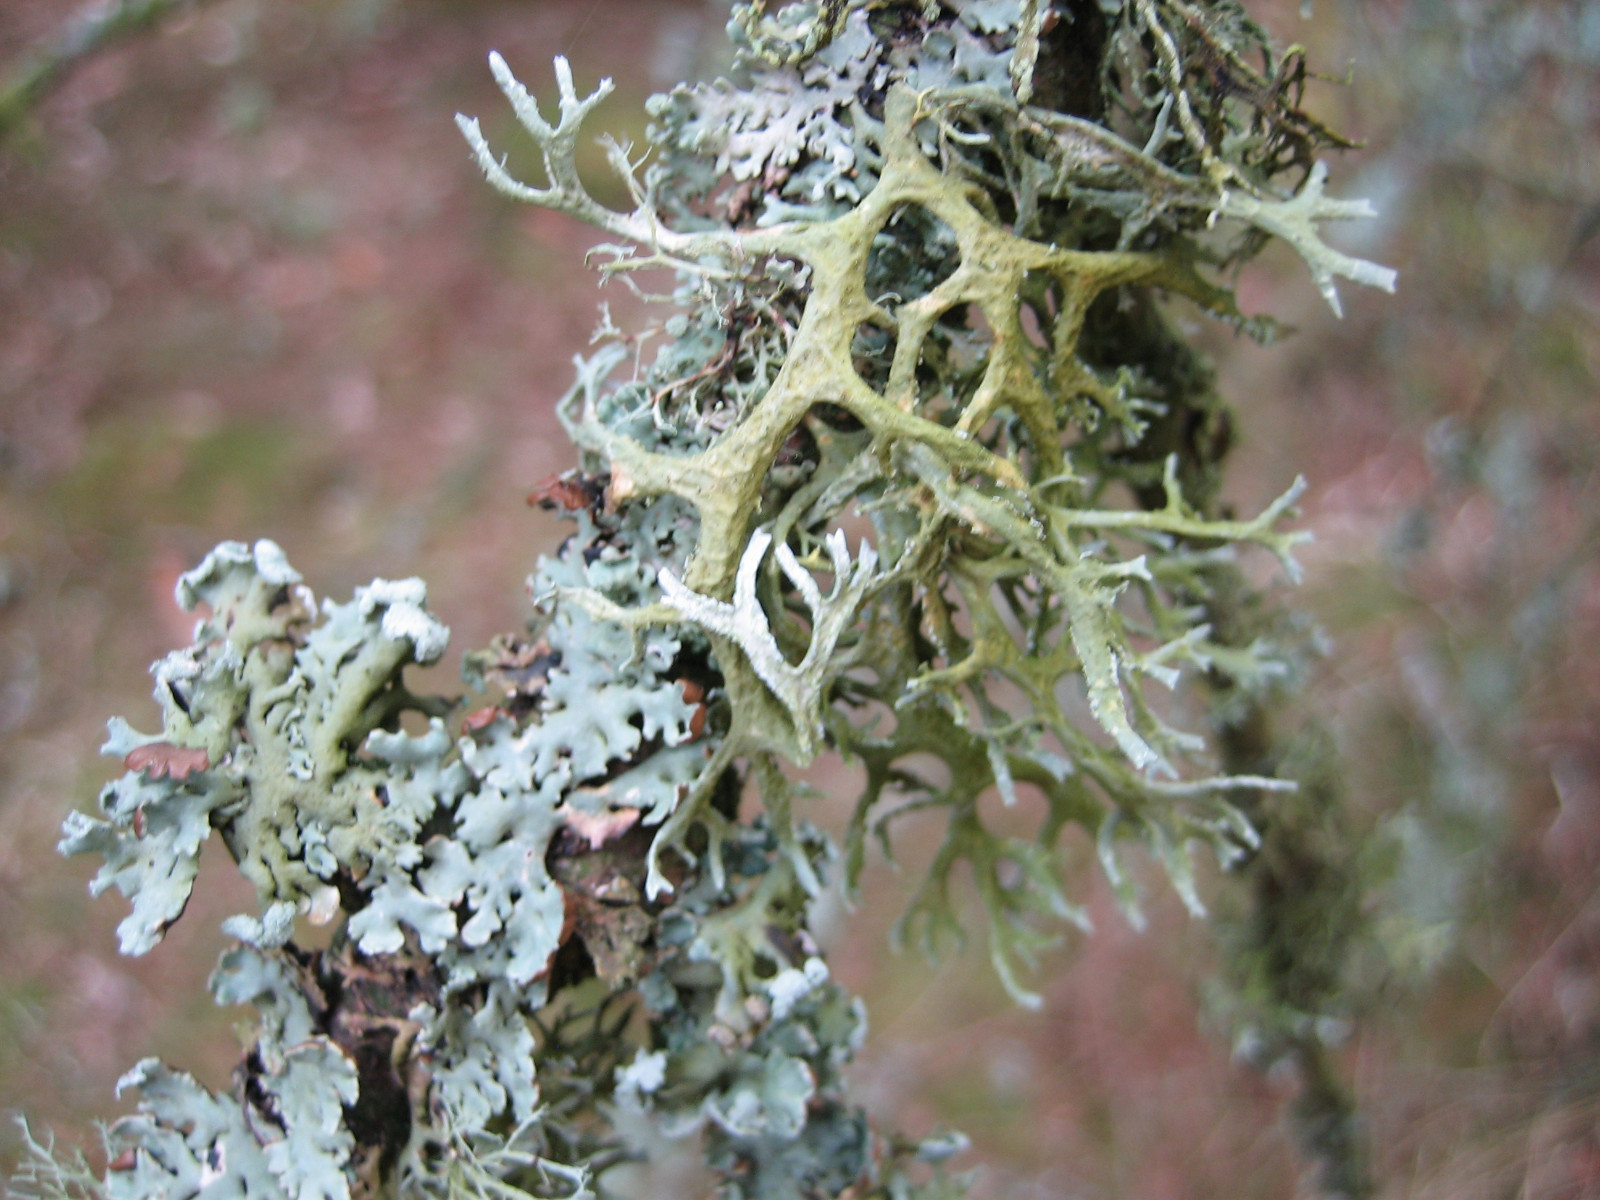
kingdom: Fungi
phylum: Ascomycota
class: Lecanoromycetes
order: Lecanorales
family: Parmeliaceae
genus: Evernia
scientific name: Evernia prunastri
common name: almindelig slåenlav
